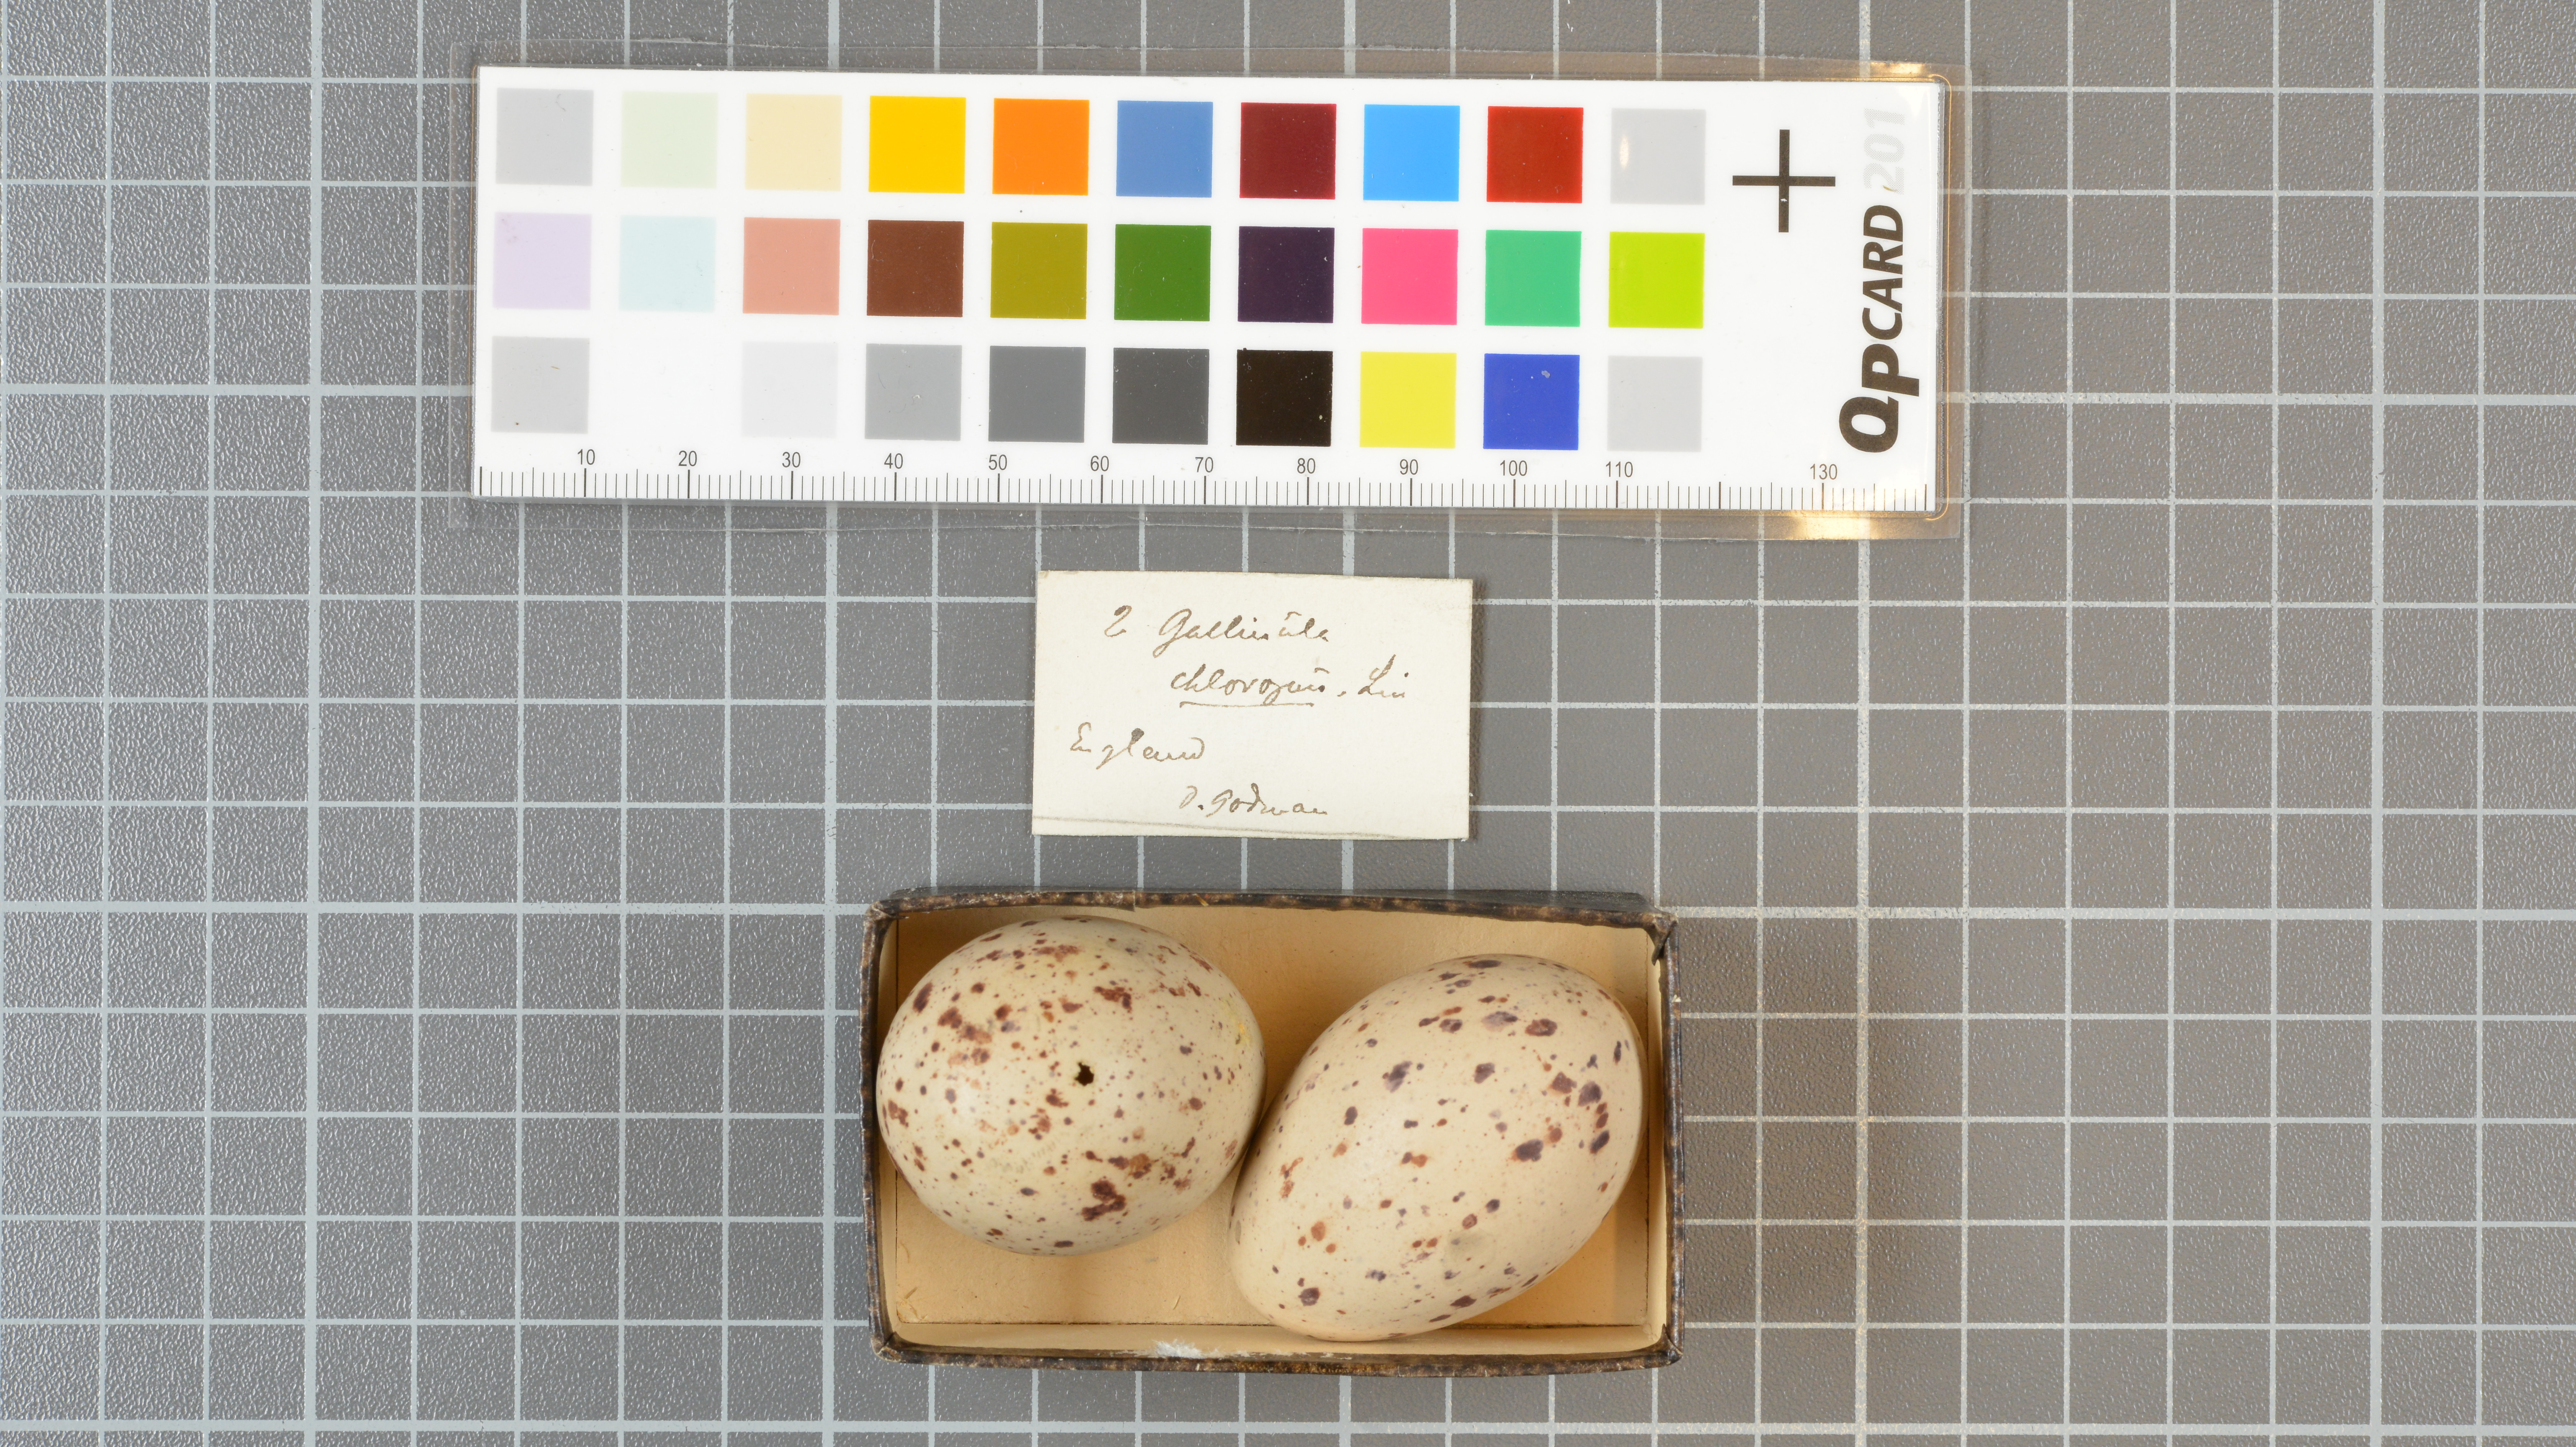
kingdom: Animalia
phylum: Chordata
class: Aves
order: Gruiformes
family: Rallidae
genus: Gallinula
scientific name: Gallinula chloropus
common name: Common moorhen
